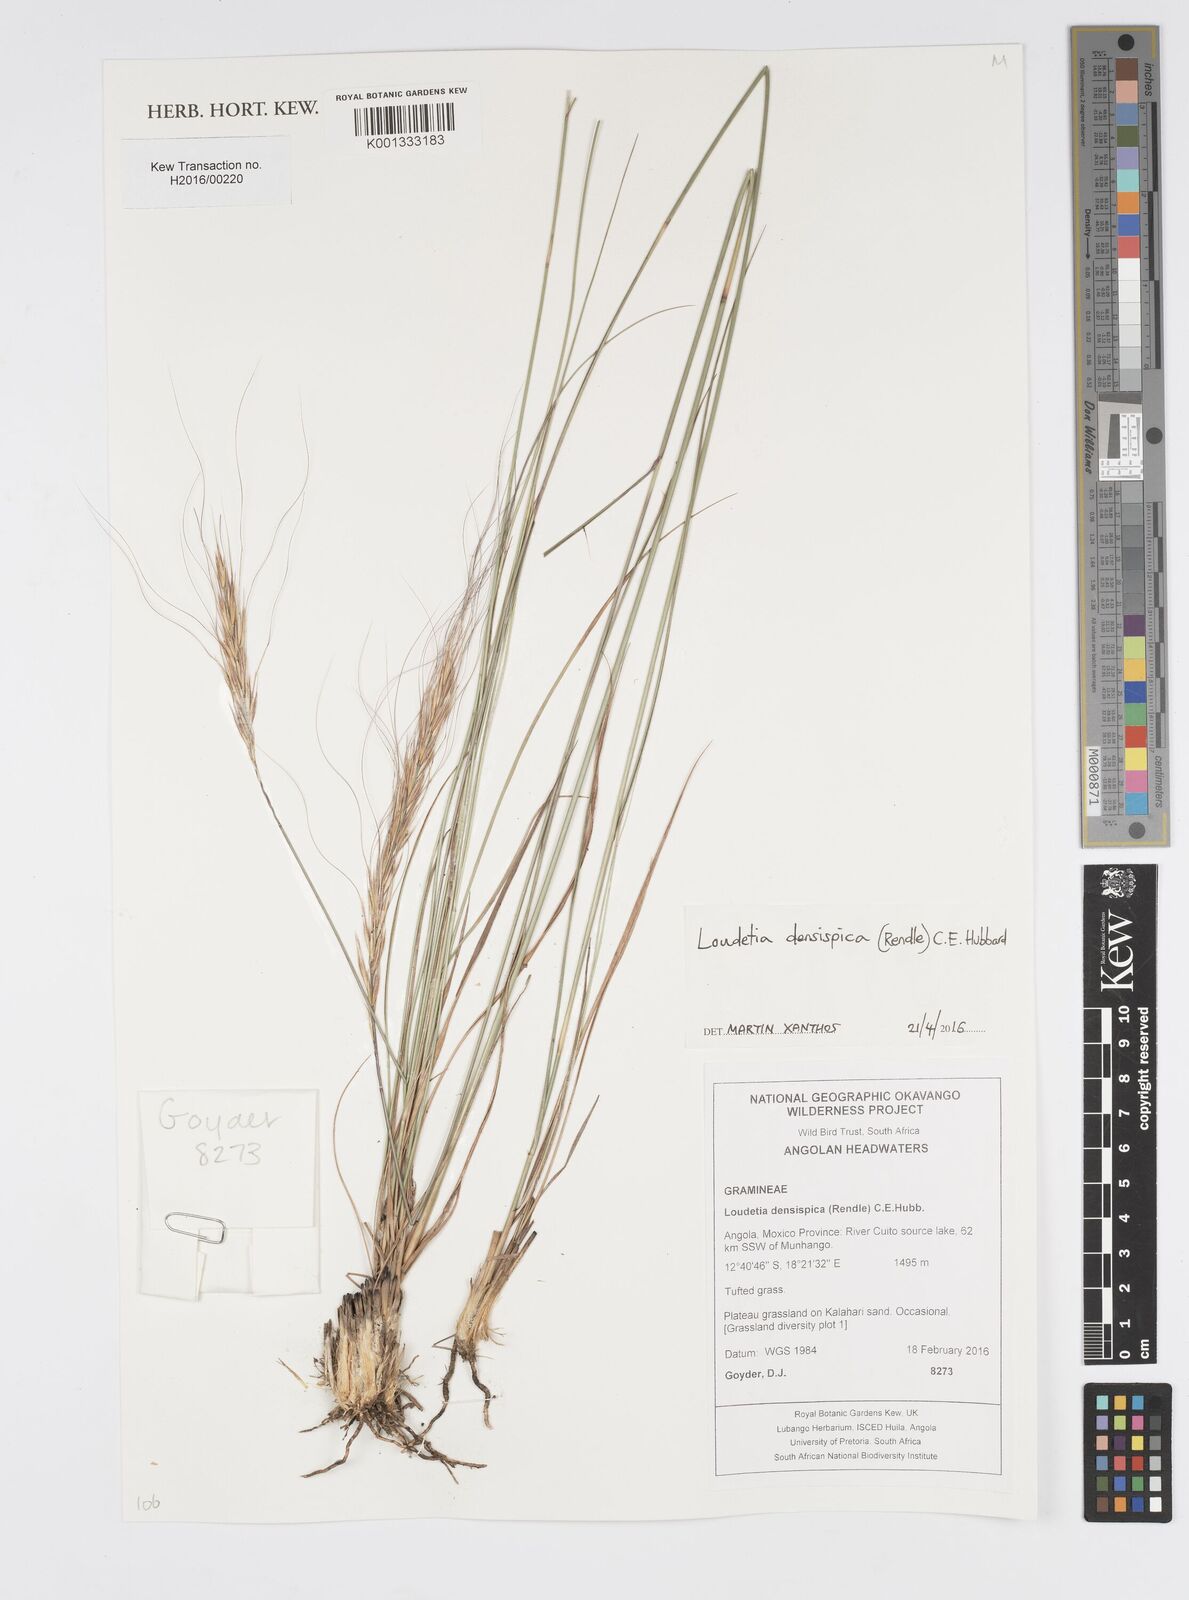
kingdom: Plantae
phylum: Tracheophyta
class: Liliopsida
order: Poales
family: Poaceae
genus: Loudetia
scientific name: Loudetia densispica
